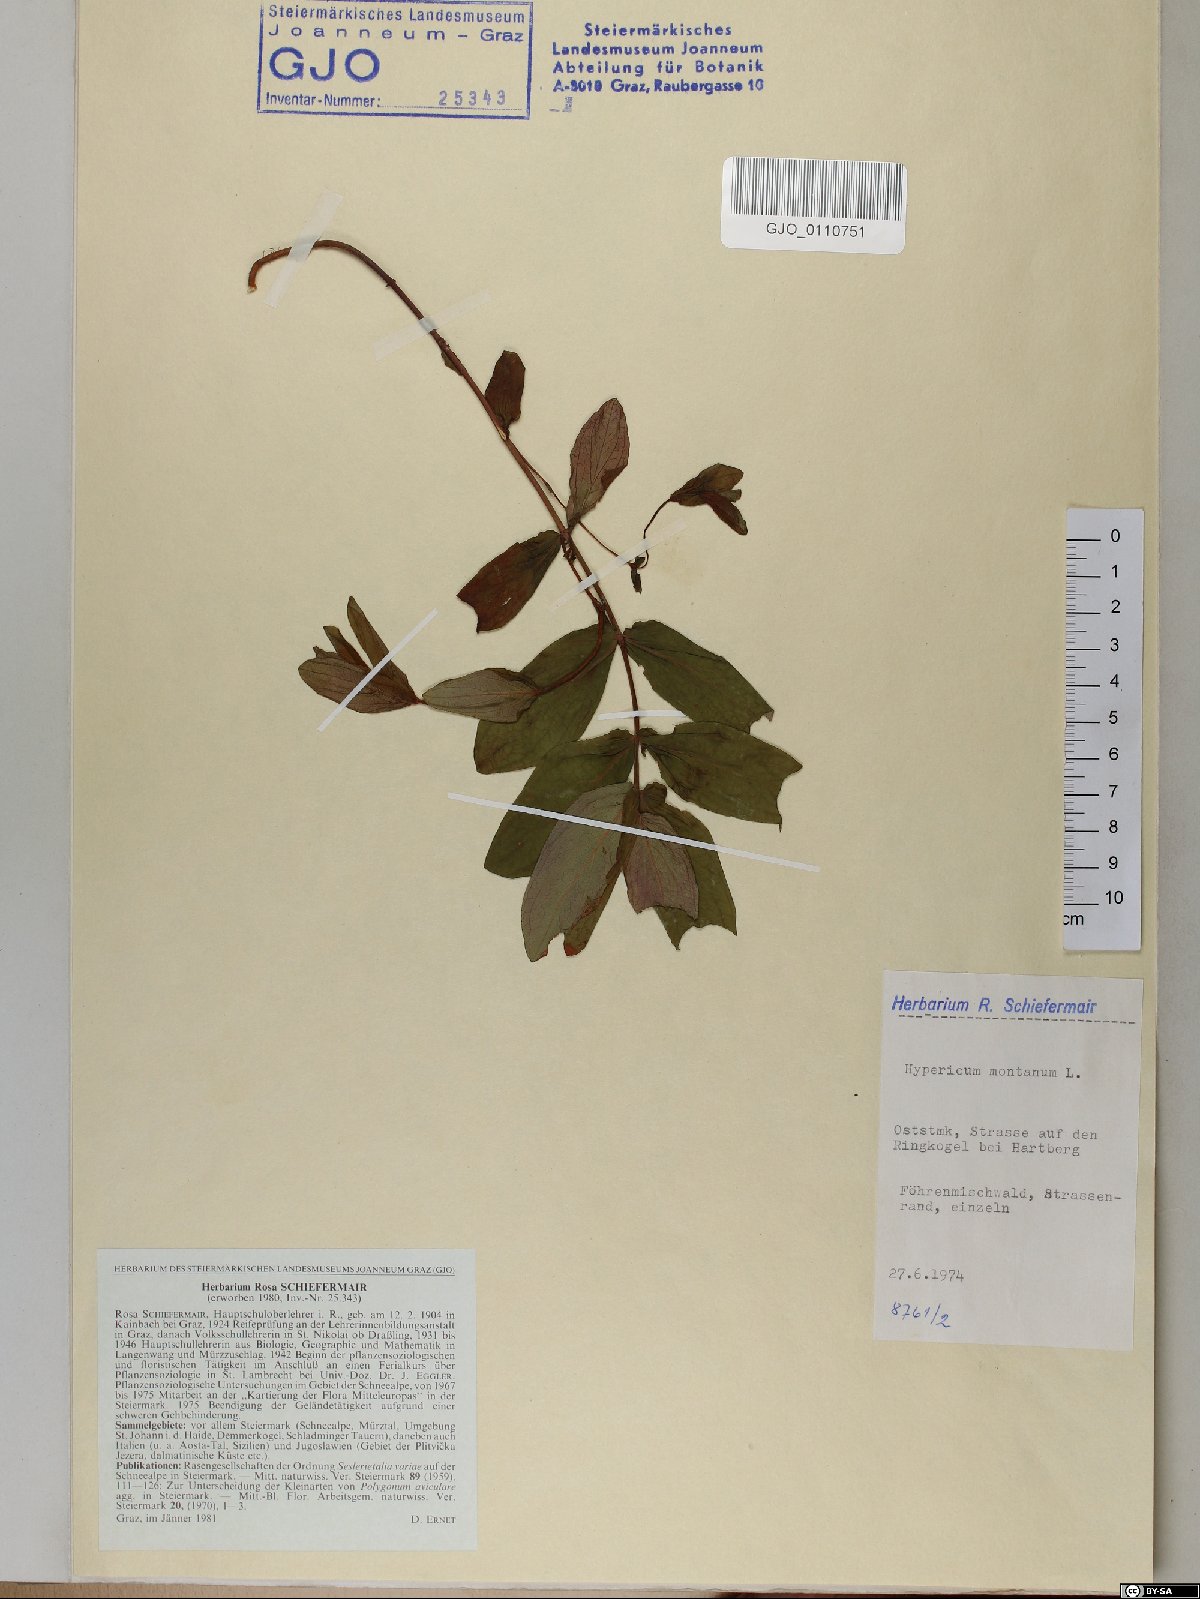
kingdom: Plantae
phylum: Tracheophyta
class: Magnoliopsida
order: Malpighiales
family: Hypericaceae
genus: Hypericum
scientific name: Hypericum montanum
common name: Pale st. john's-wort
